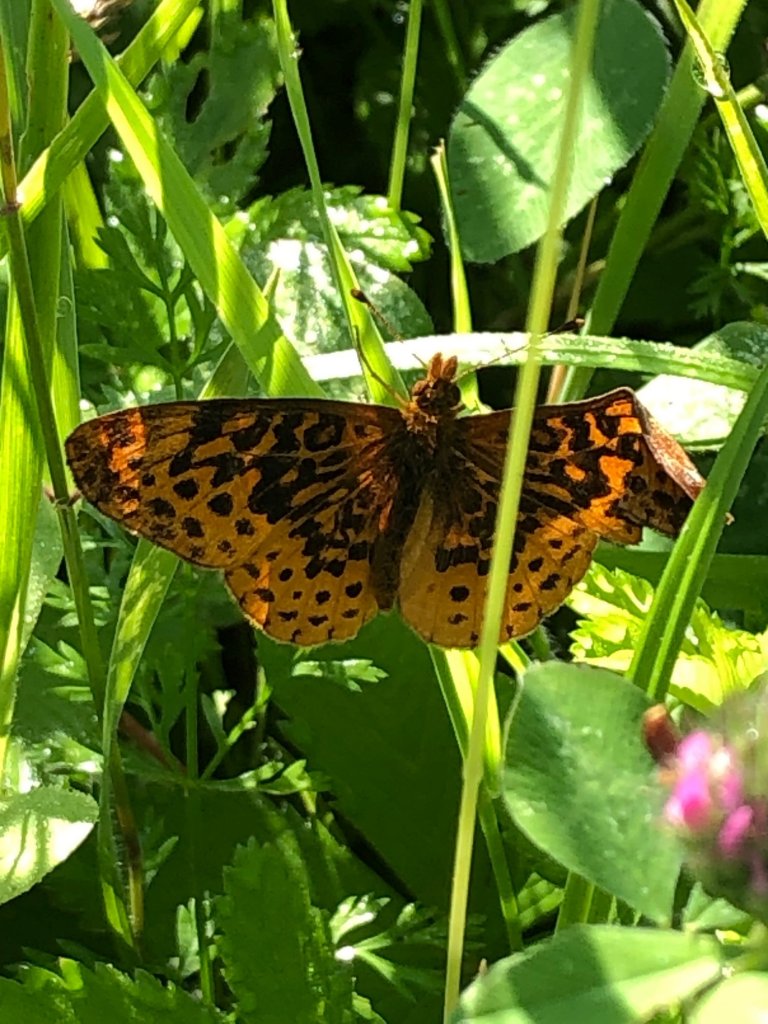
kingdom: Animalia
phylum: Arthropoda
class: Insecta
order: Lepidoptera
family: Nymphalidae
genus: Clossiana
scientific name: Clossiana toddi
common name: Meadow Fritillary
